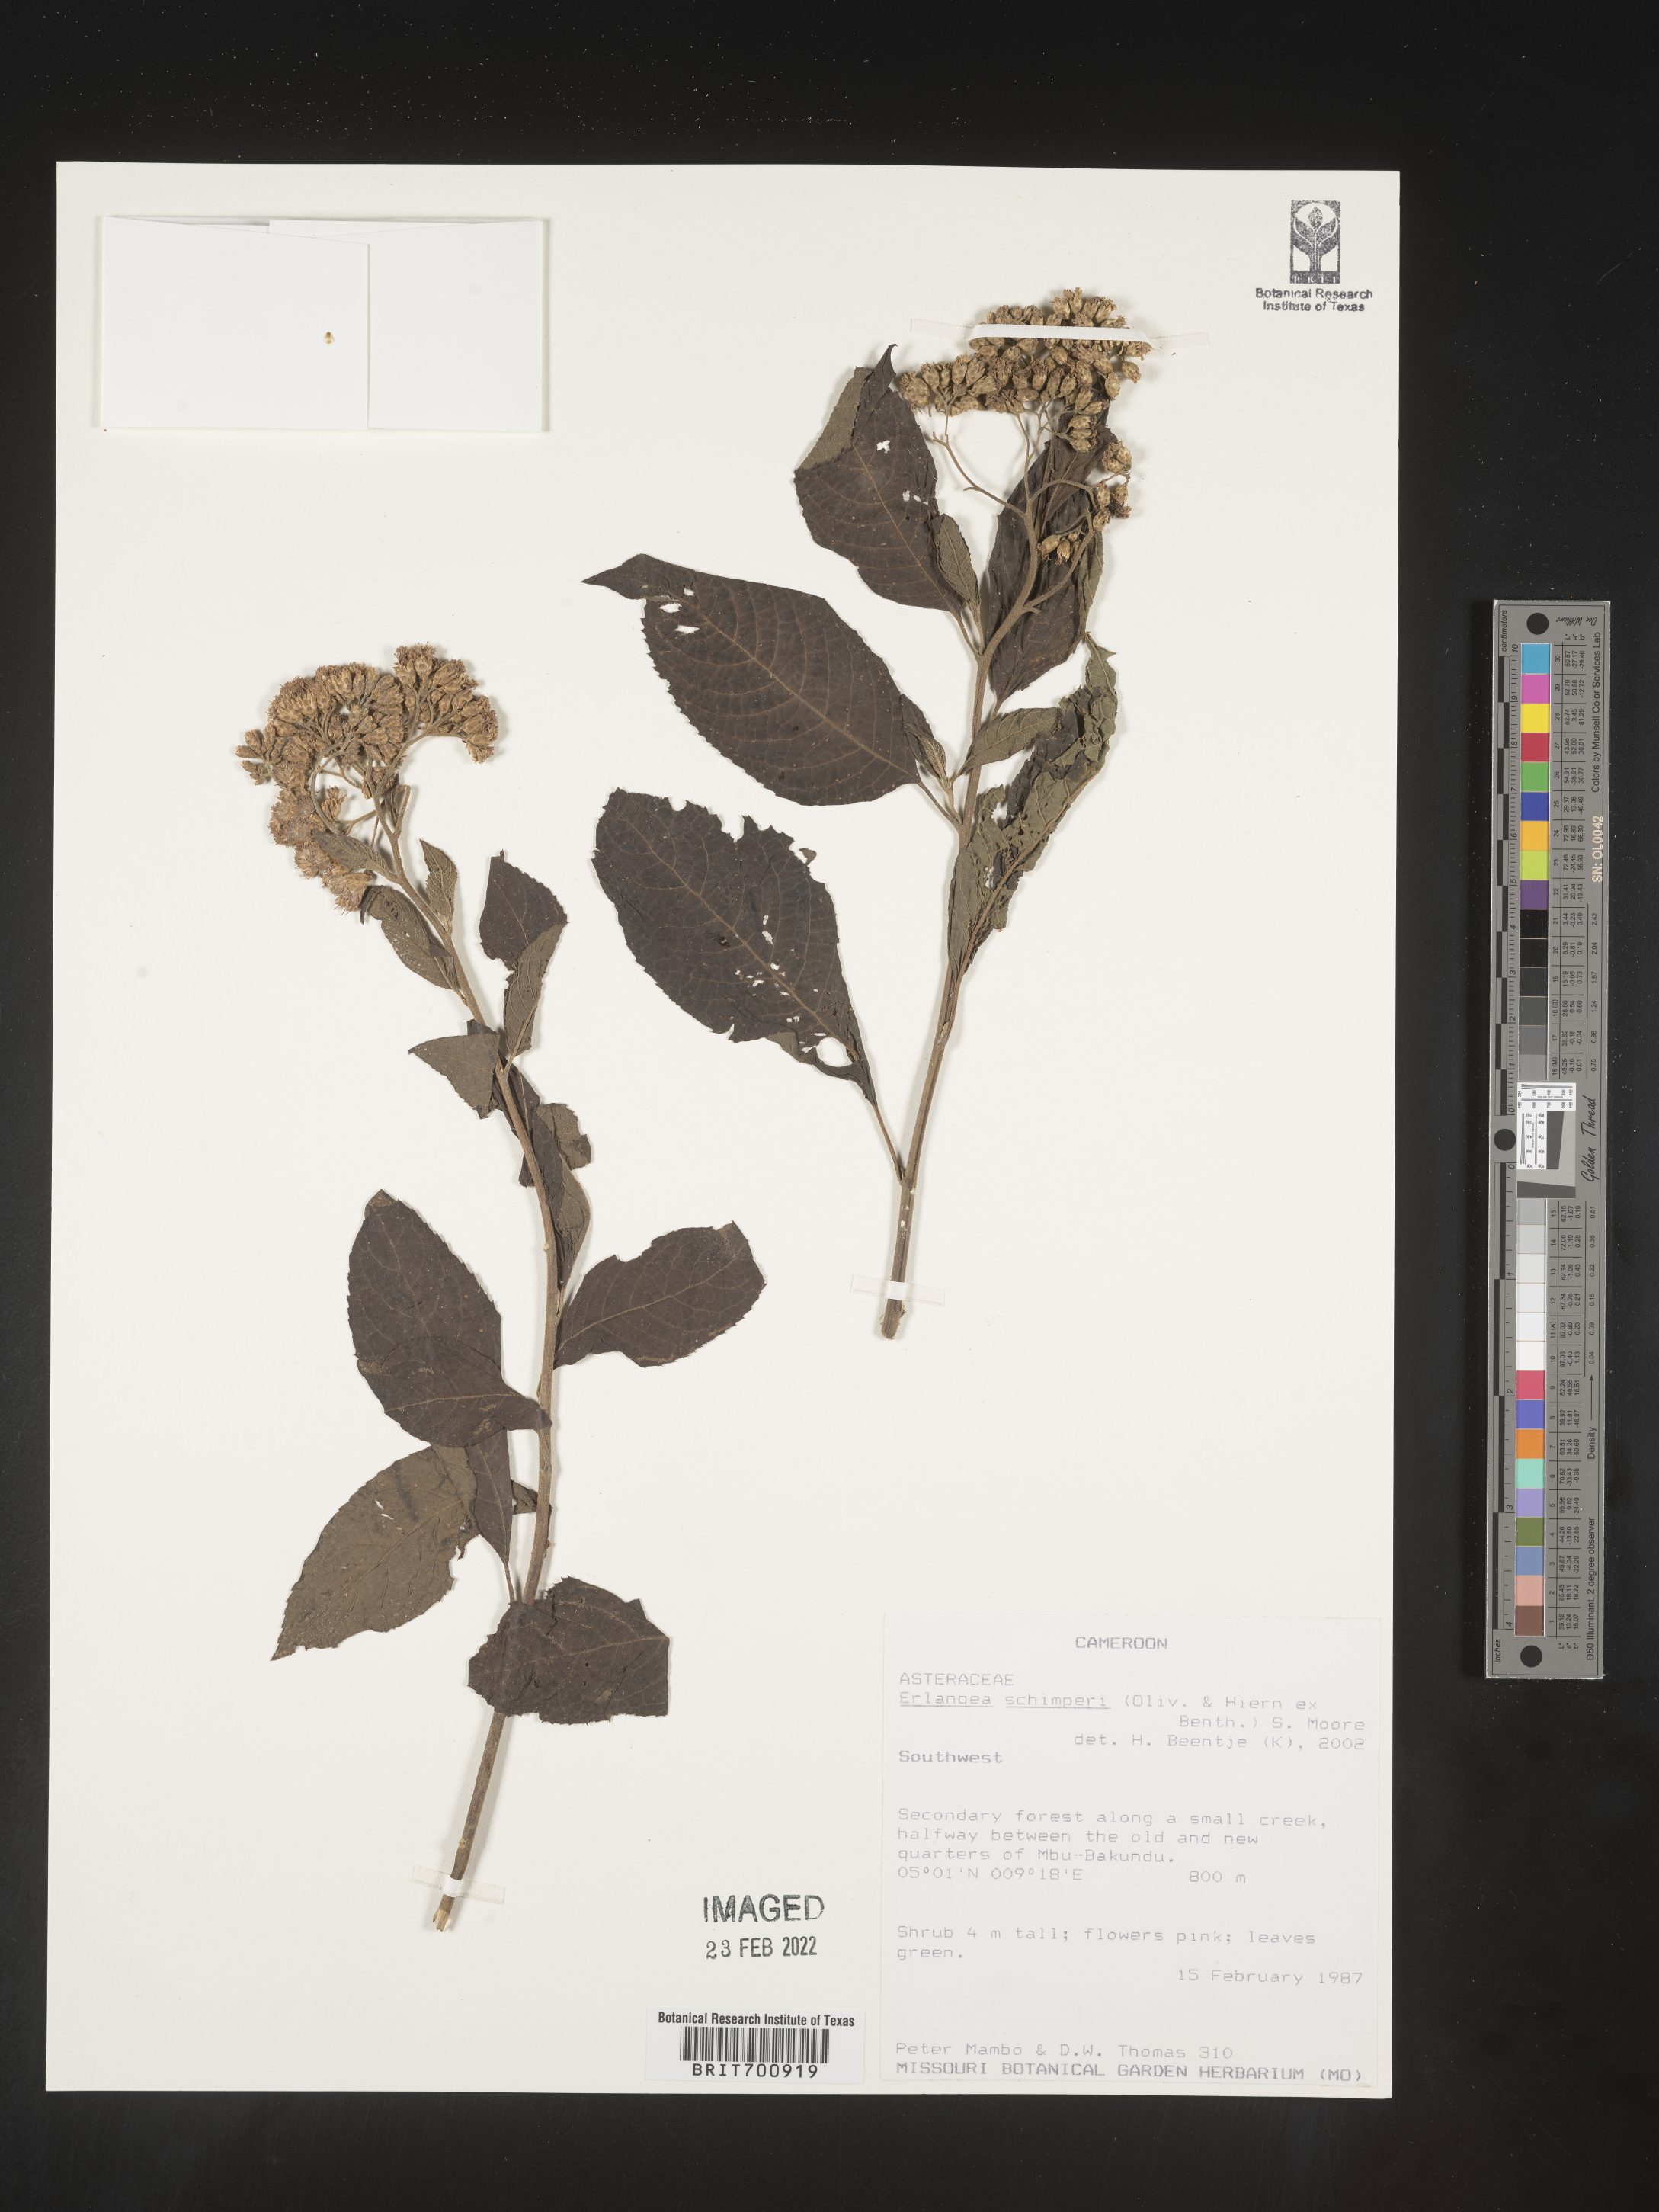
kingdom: Plantae
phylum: Tracheophyta
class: Magnoliopsida
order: Asterales
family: Asteraceae
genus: Bothriocline
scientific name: Bothriocline schimperi
